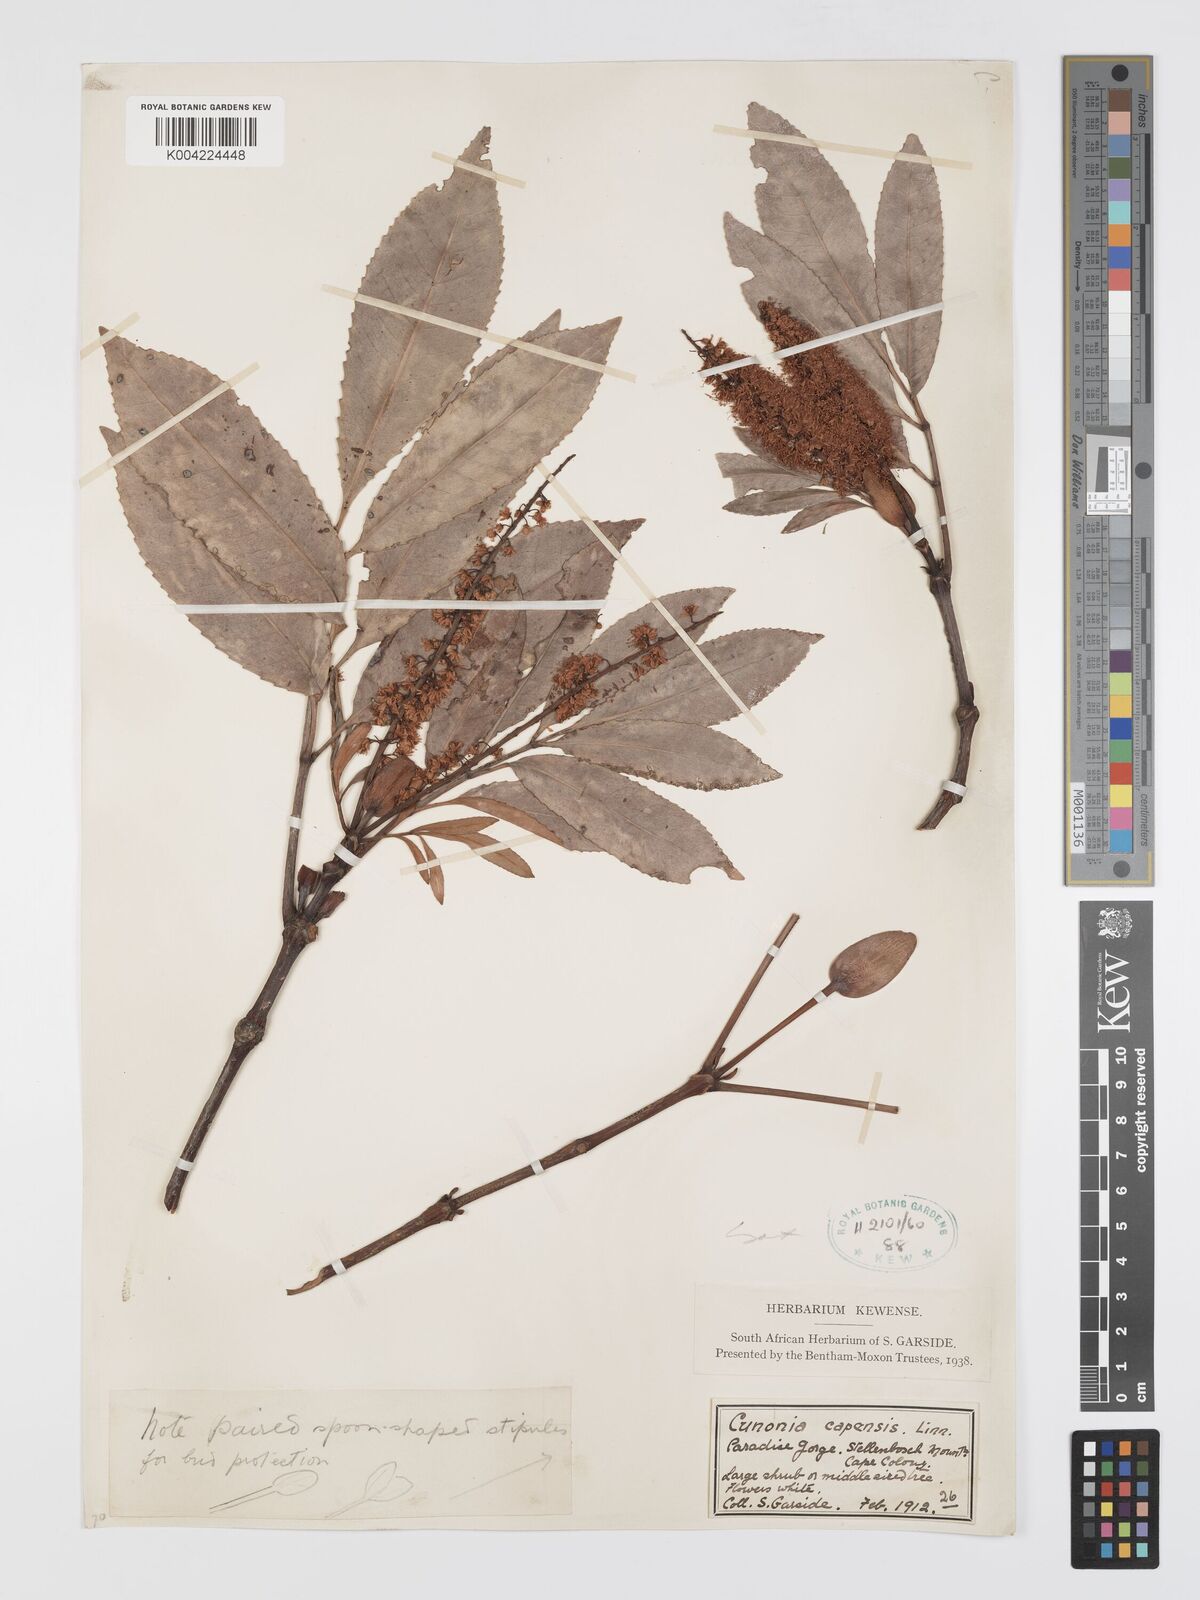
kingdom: Plantae
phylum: Tracheophyta
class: Magnoliopsida
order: Oxalidales
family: Cunoniaceae
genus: Cunonia
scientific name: Cunonia capensis
